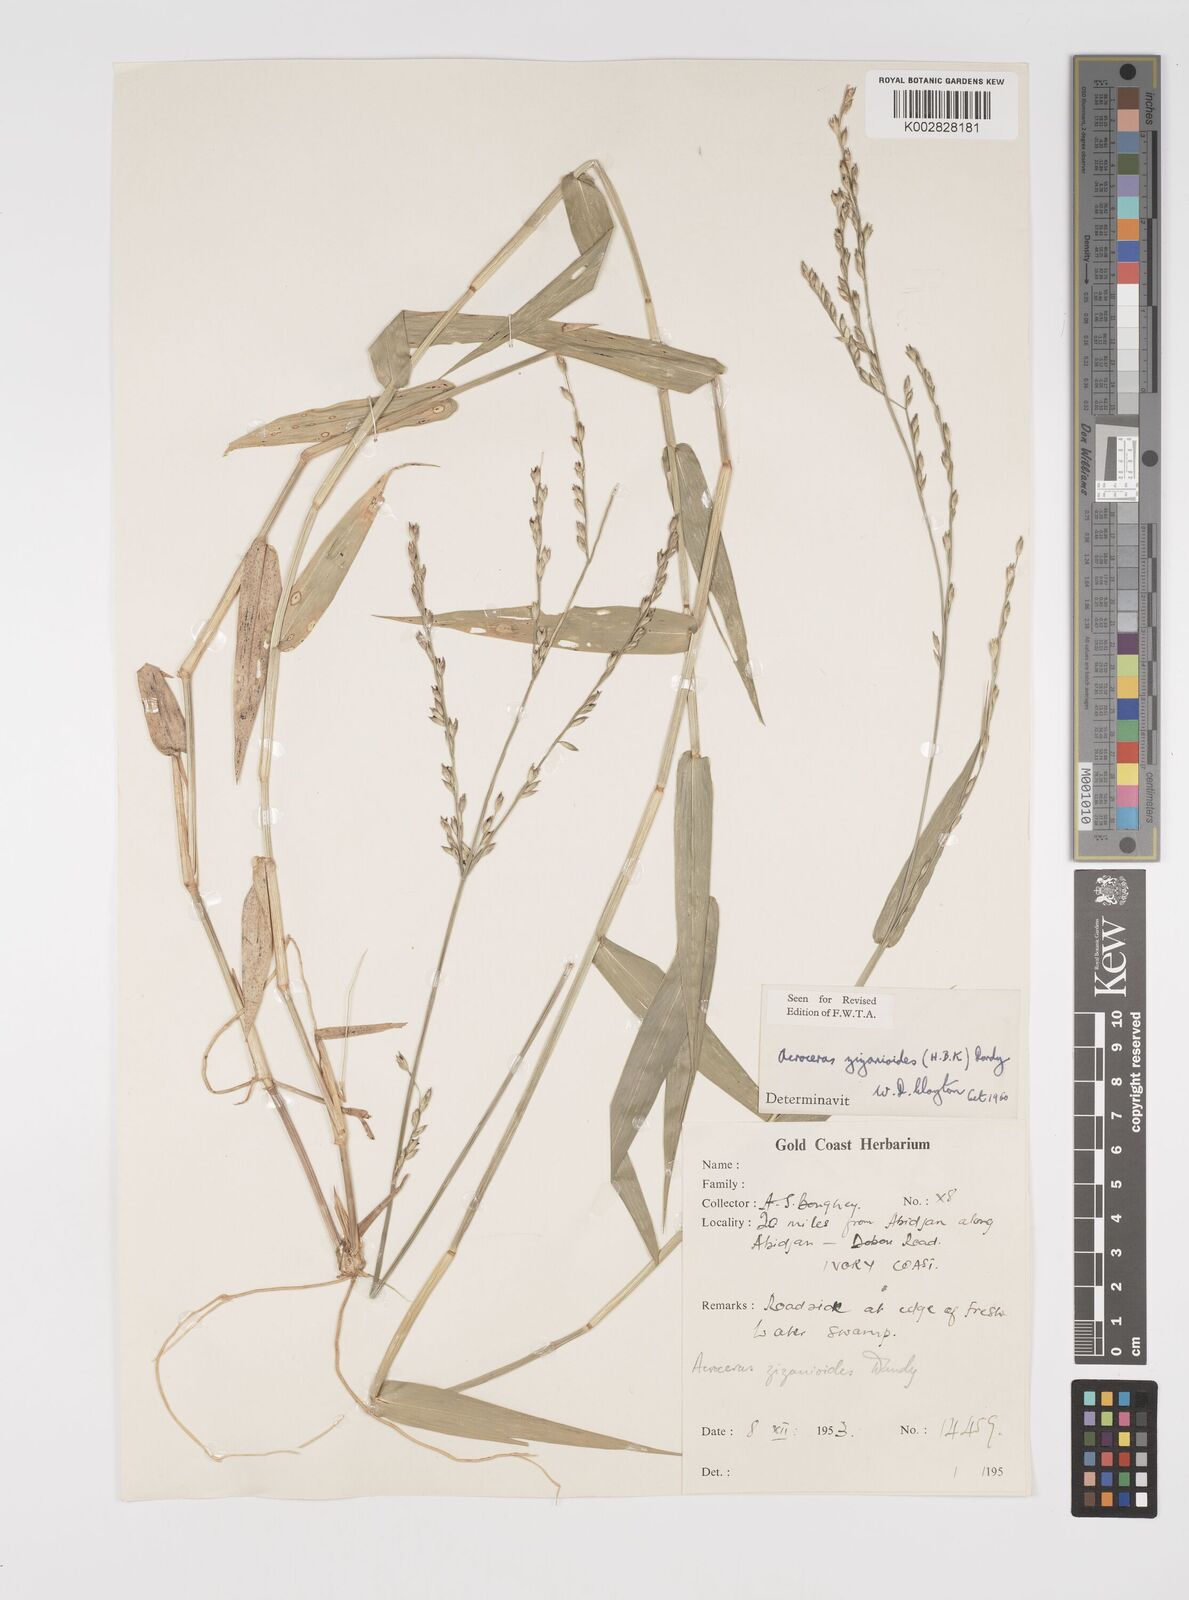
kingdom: Plantae
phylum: Tracheophyta
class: Liliopsida
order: Poales
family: Poaceae
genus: Acroceras
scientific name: Acroceras zizanioides
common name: Oat grass
